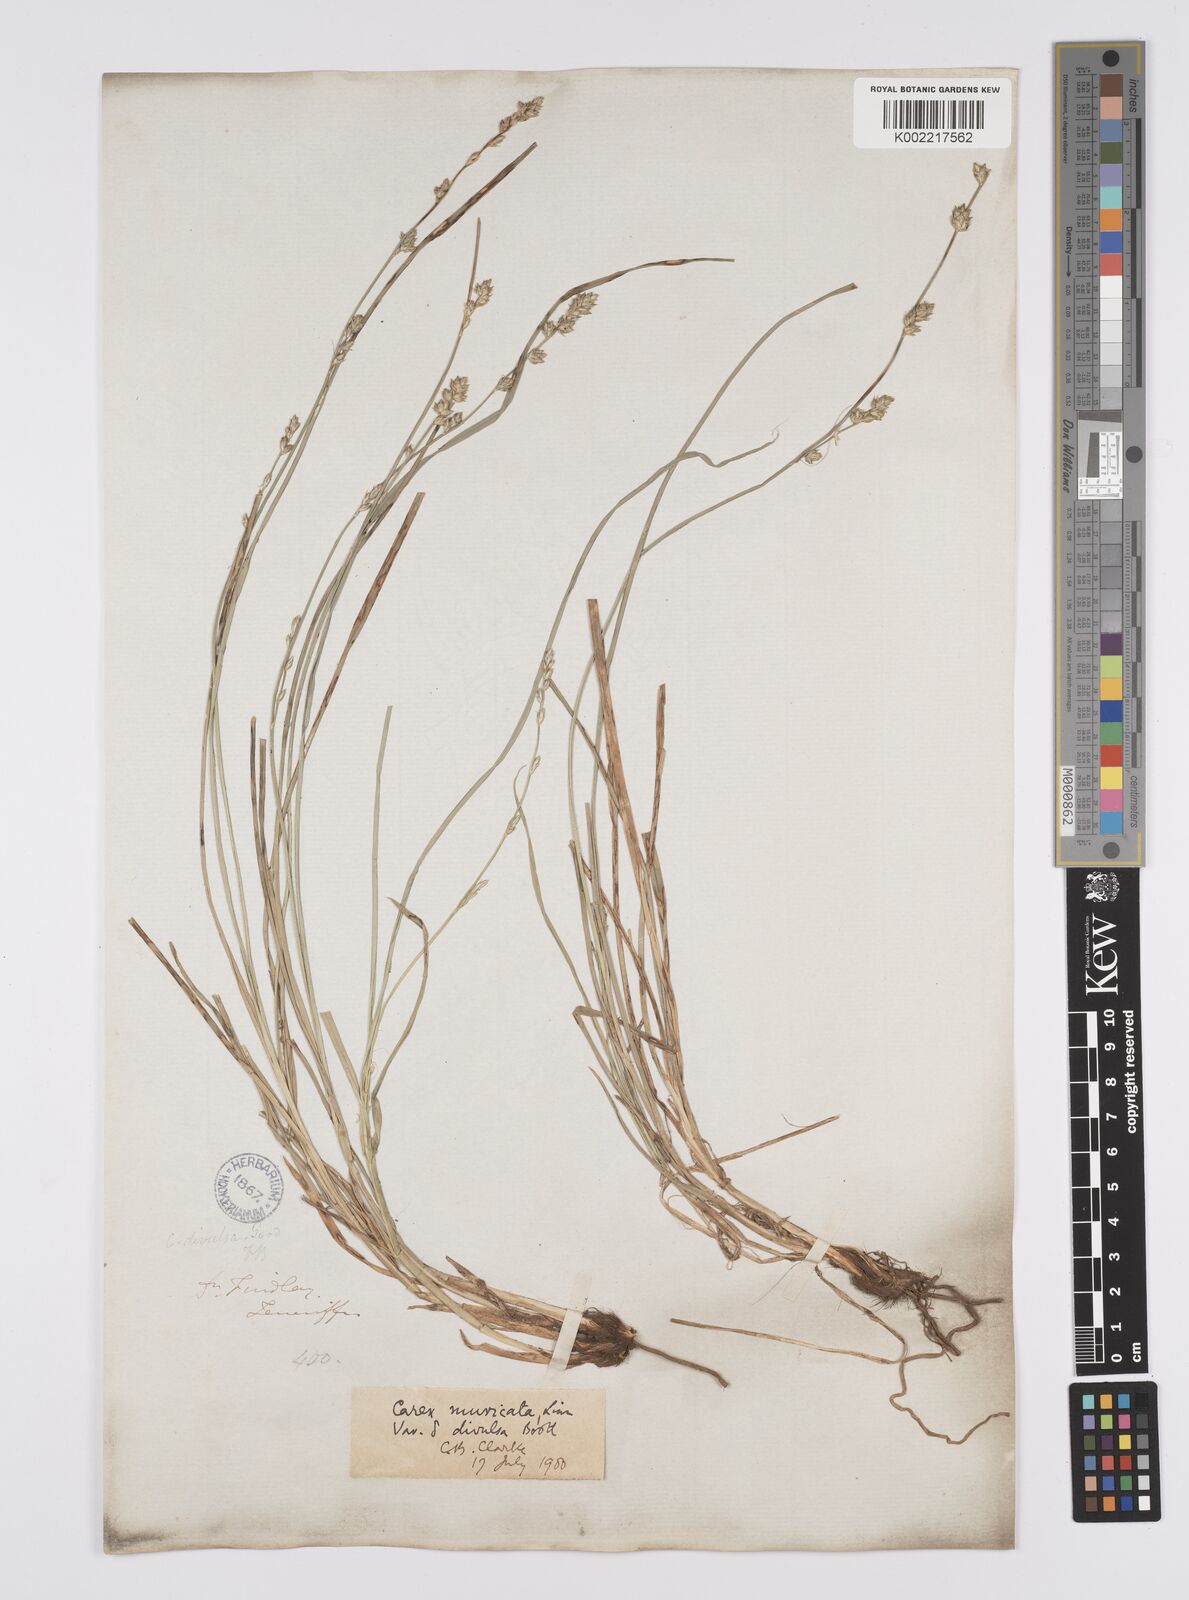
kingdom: Plantae
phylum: Tracheophyta
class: Liliopsida
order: Poales
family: Cyperaceae
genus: Carex
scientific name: Carex divulsa
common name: Grassland sedge
